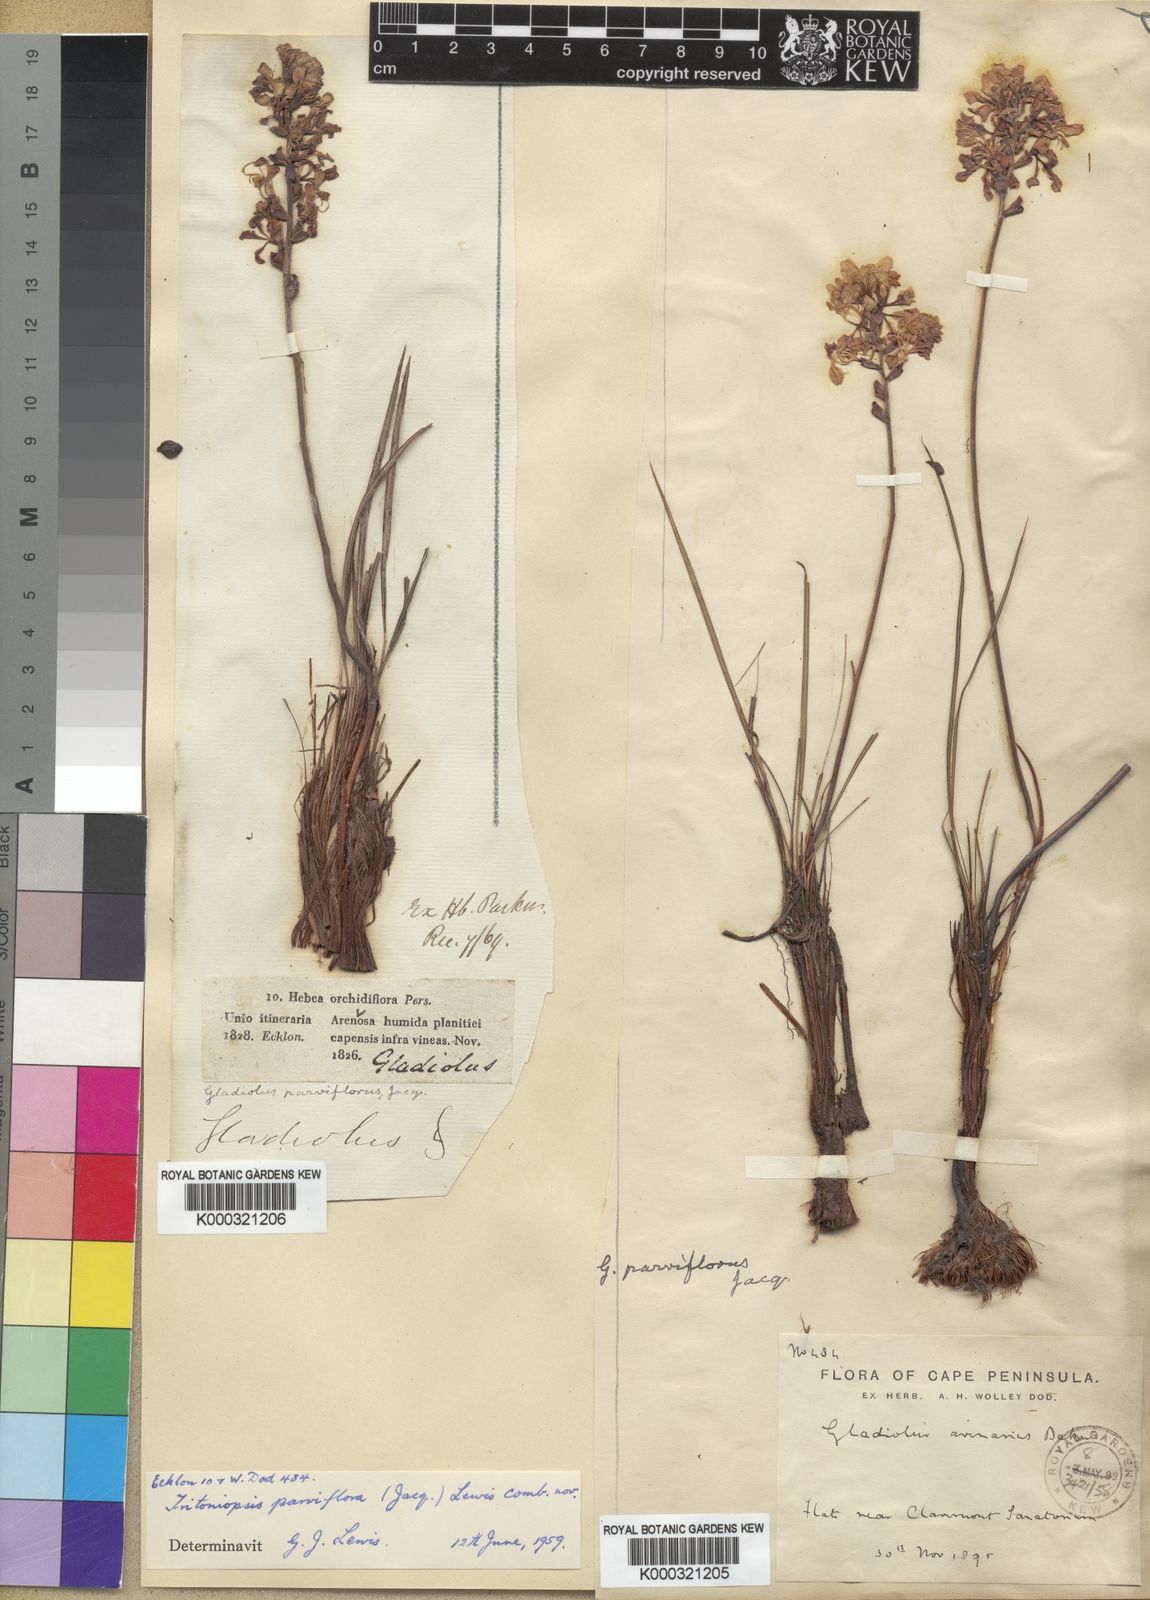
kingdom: Plantae
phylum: Tracheophyta
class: Liliopsida
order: Asparagales
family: Iridaceae
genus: Tritoniopsis
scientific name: Tritoniopsis parviflora
